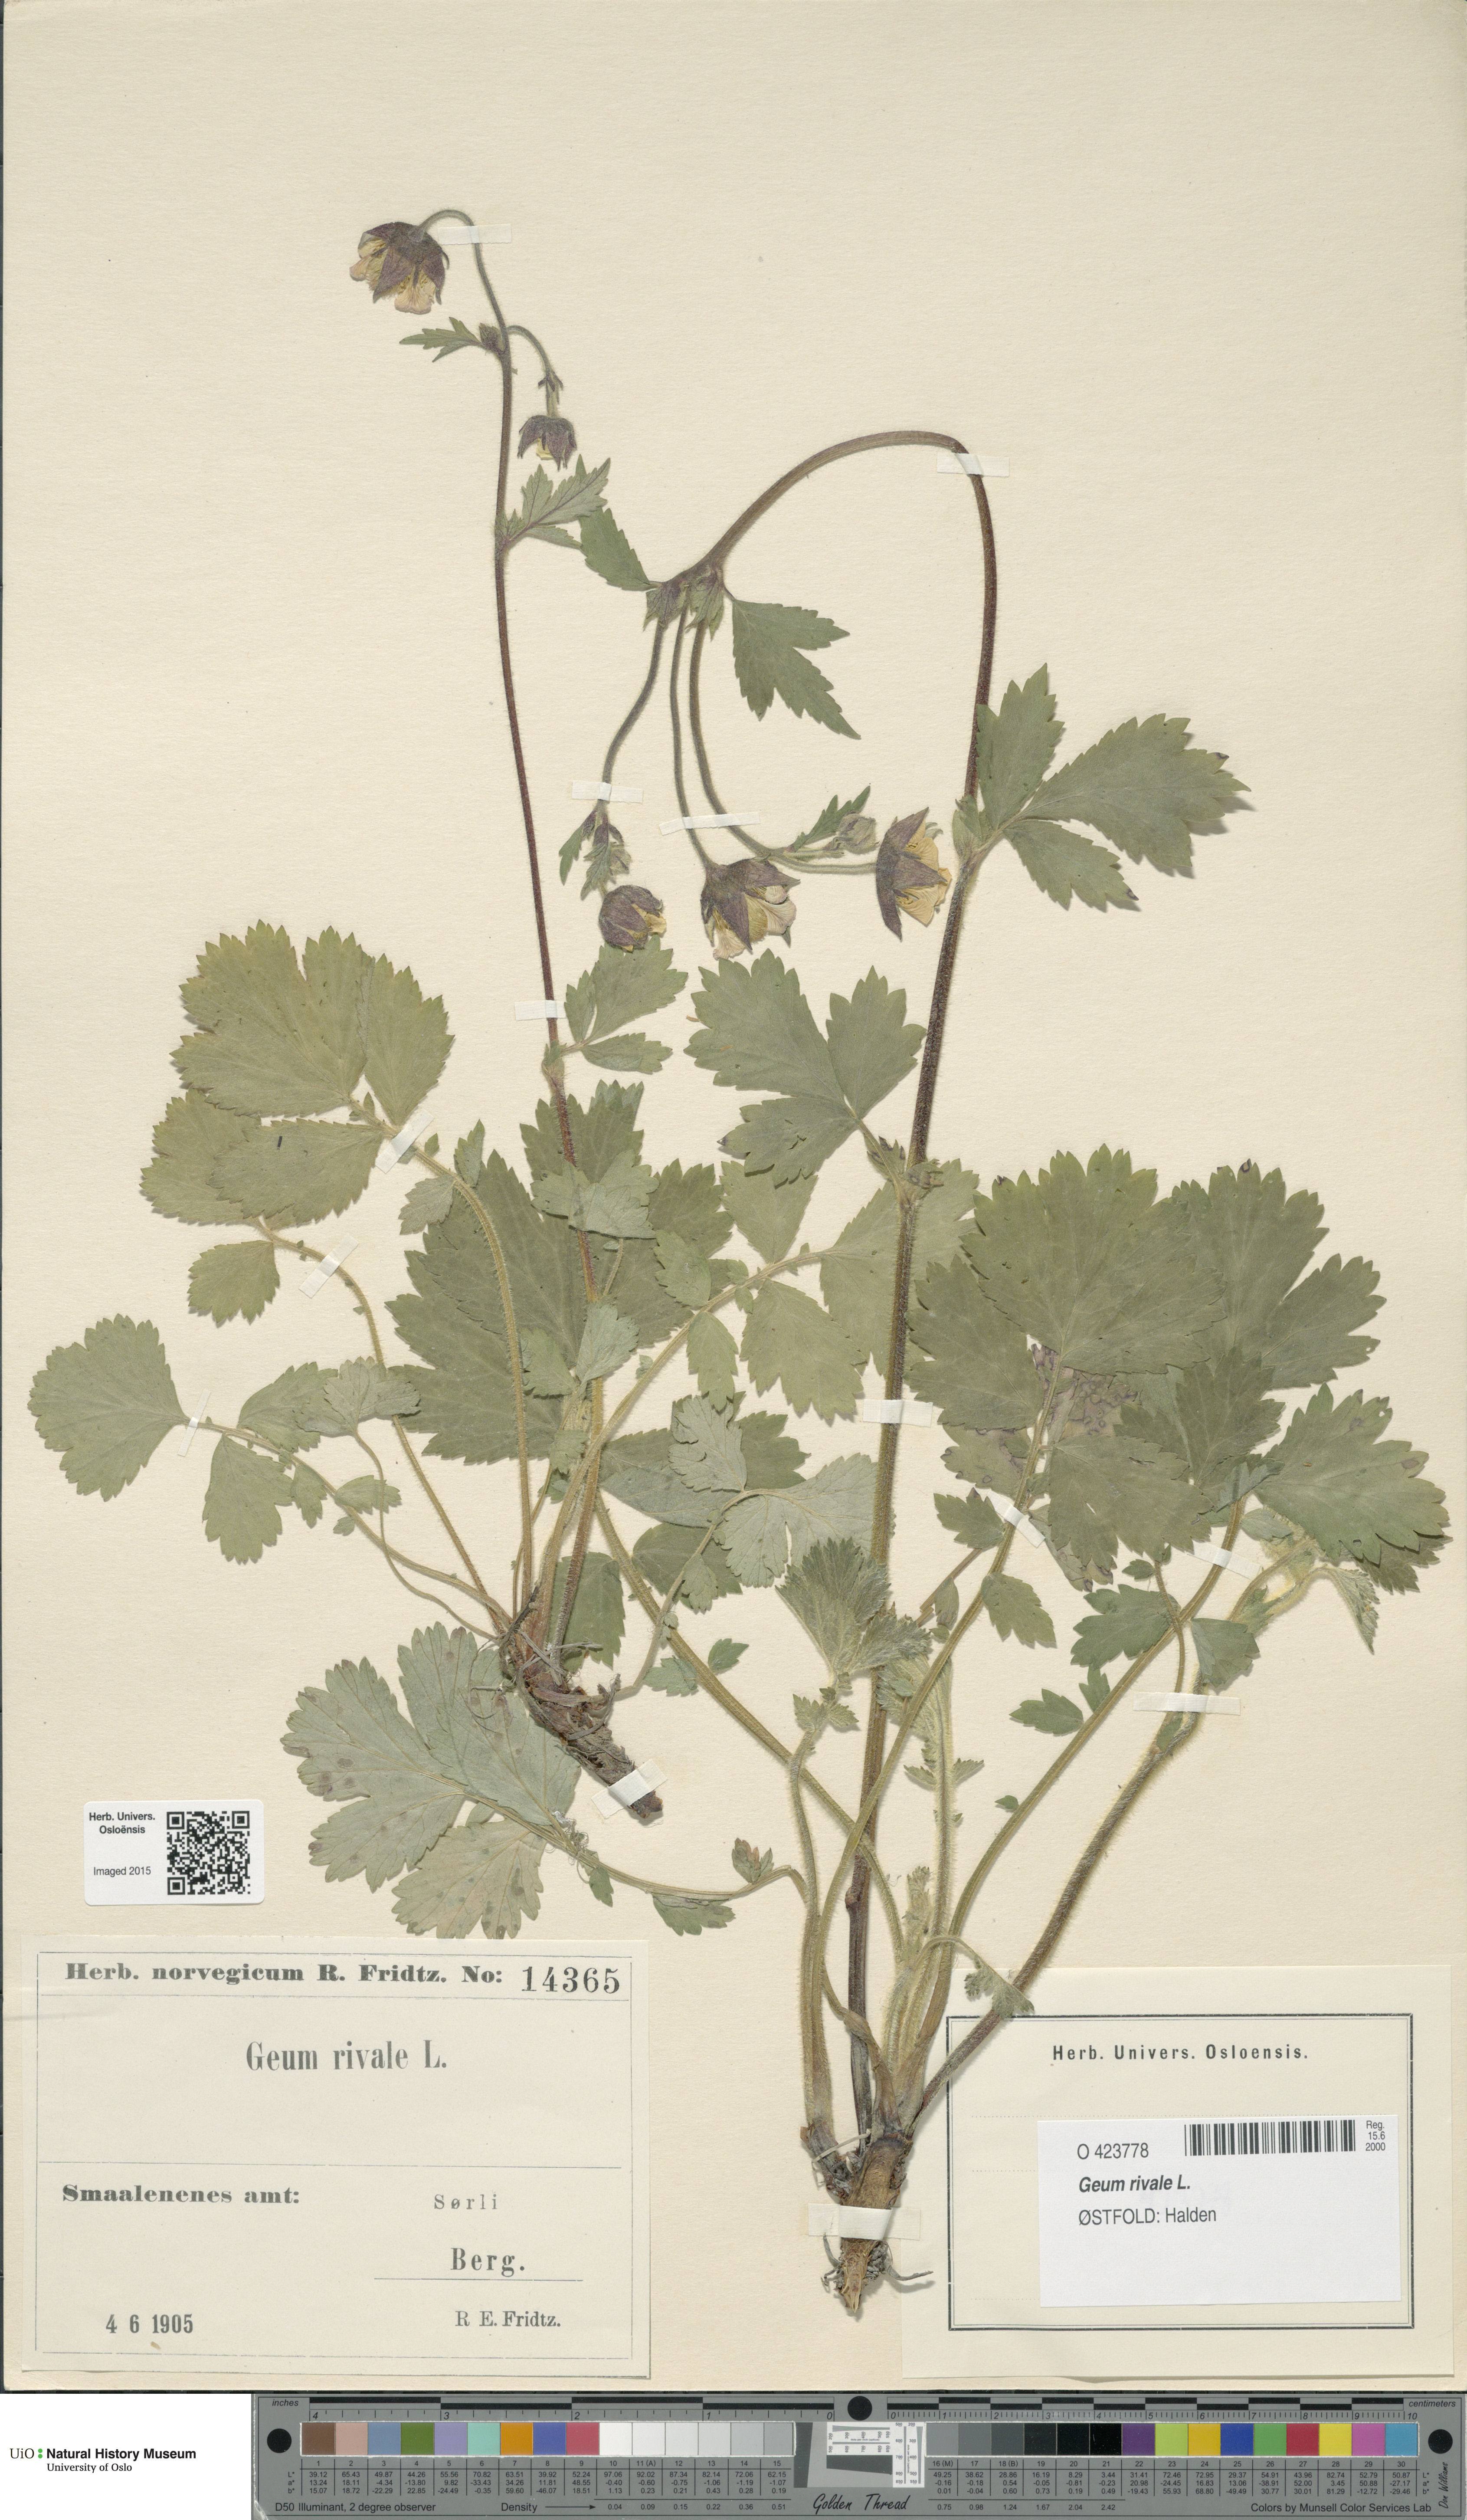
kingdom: Plantae
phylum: Tracheophyta
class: Magnoliopsida
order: Rosales
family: Rosaceae
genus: Geum
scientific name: Geum rivale
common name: Water avens
